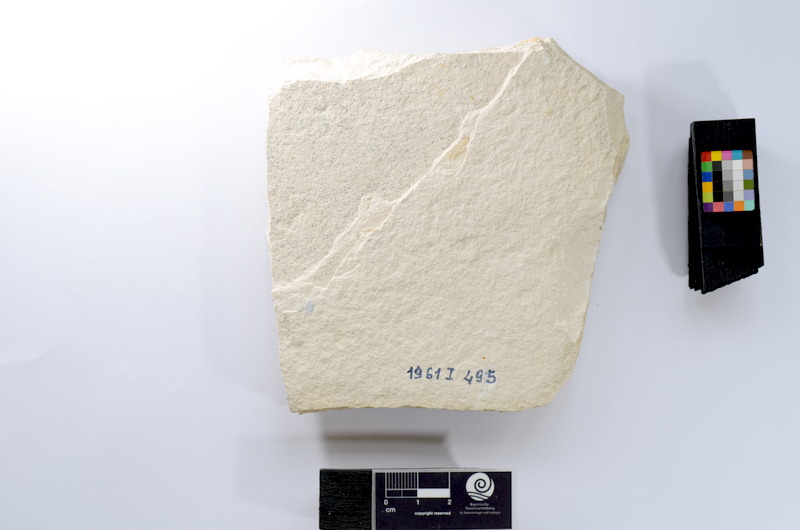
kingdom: Animalia
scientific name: Animalia
